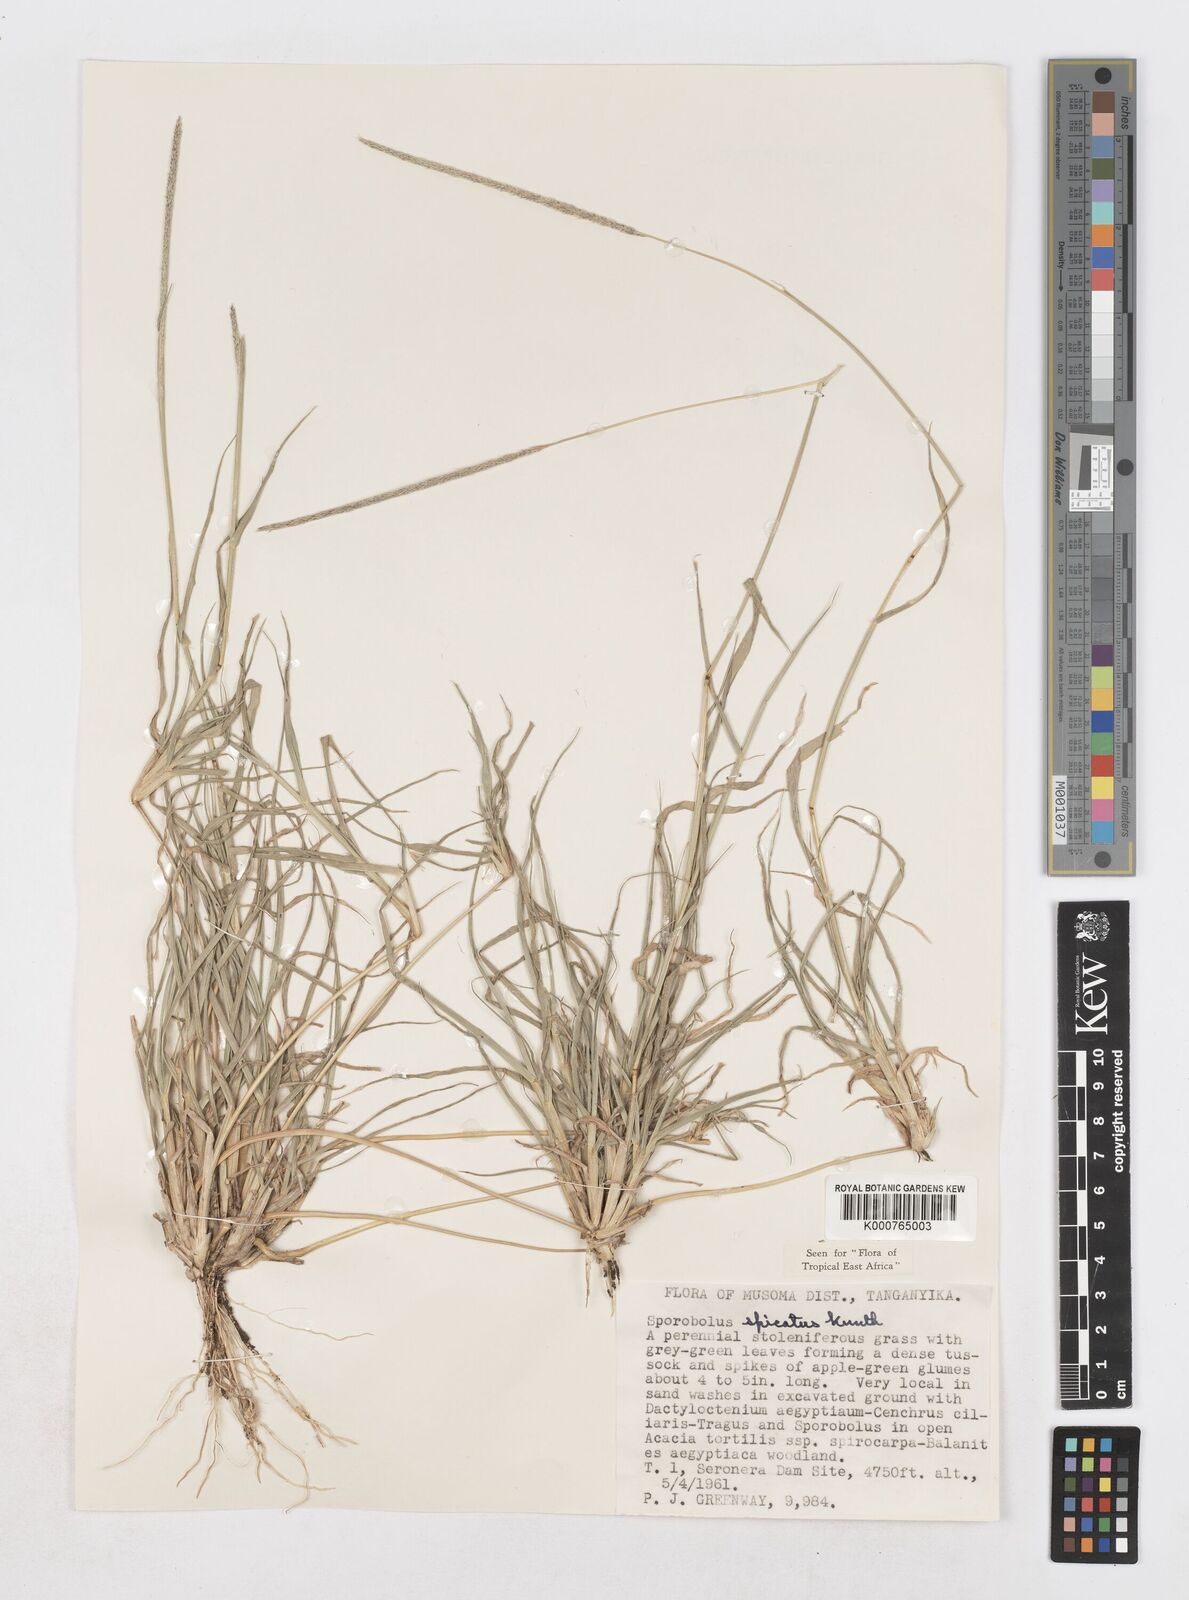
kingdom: Plantae
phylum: Tracheophyta
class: Liliopsida
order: Poales
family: Poaceae
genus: Sporobolus
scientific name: Sporobolus spicatus
